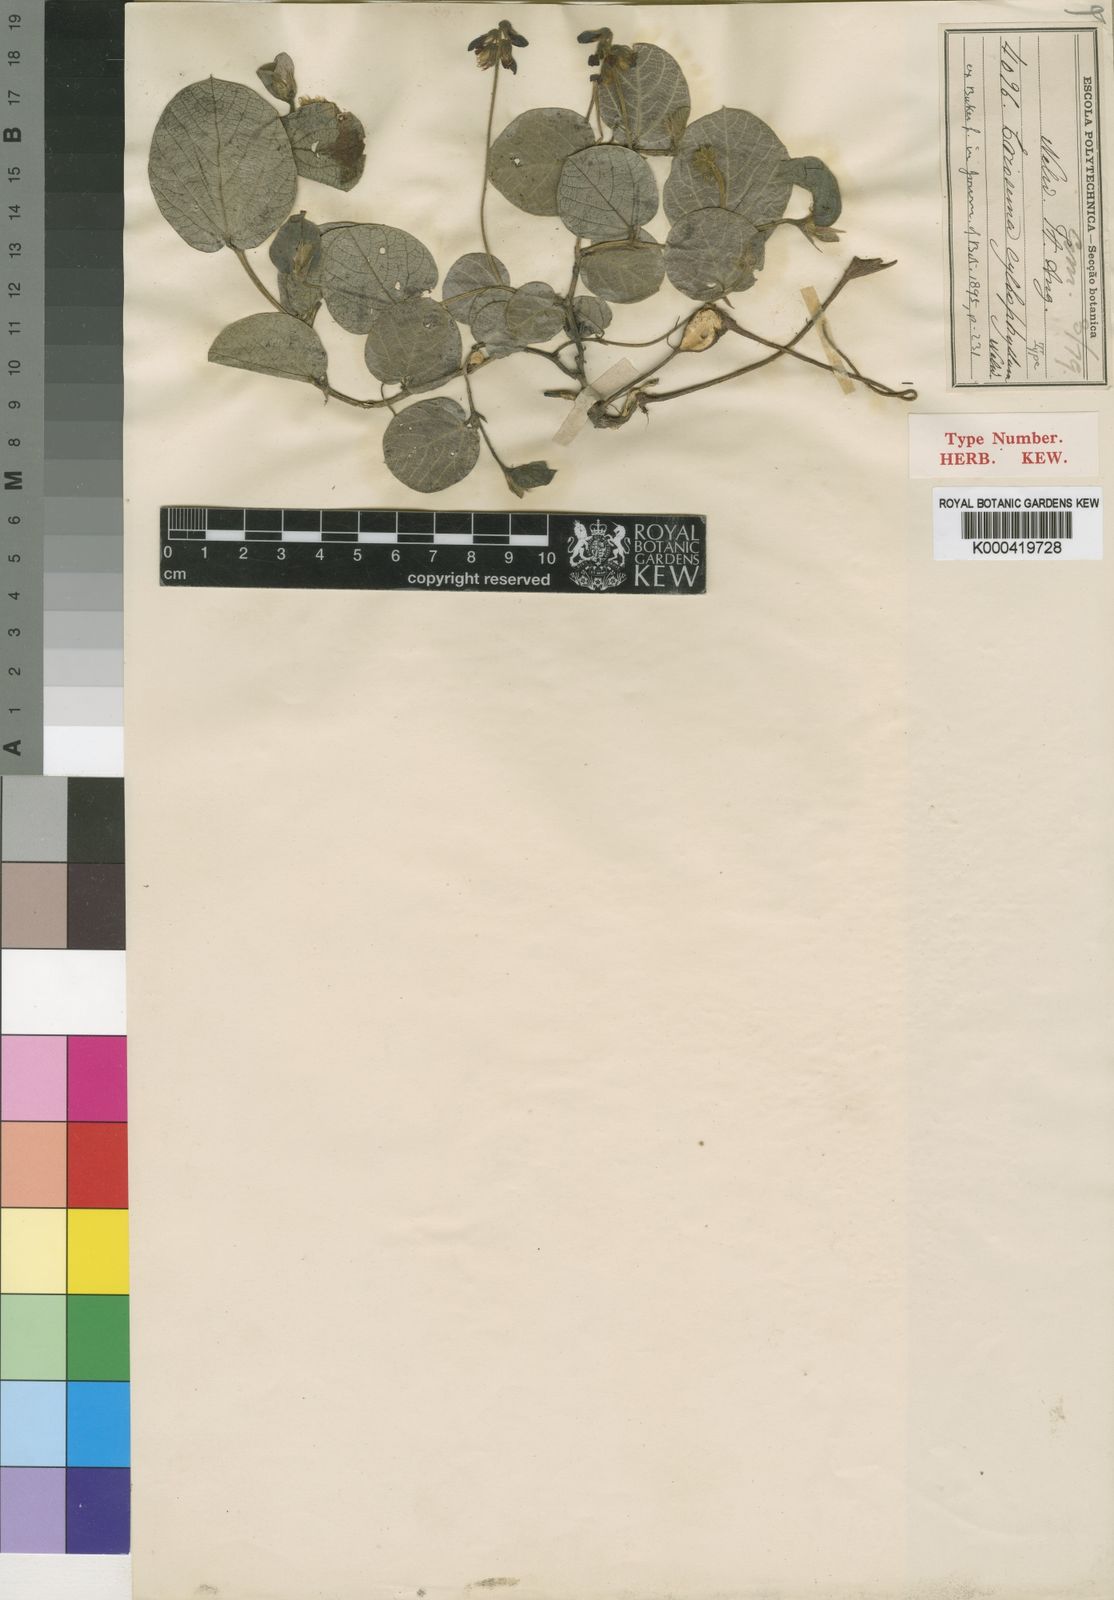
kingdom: Plantae
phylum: Tracheophyta
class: Magnoliopsida
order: Fabales
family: Fabaceae
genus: Eriosema
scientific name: Eriosema cyclophyllum
